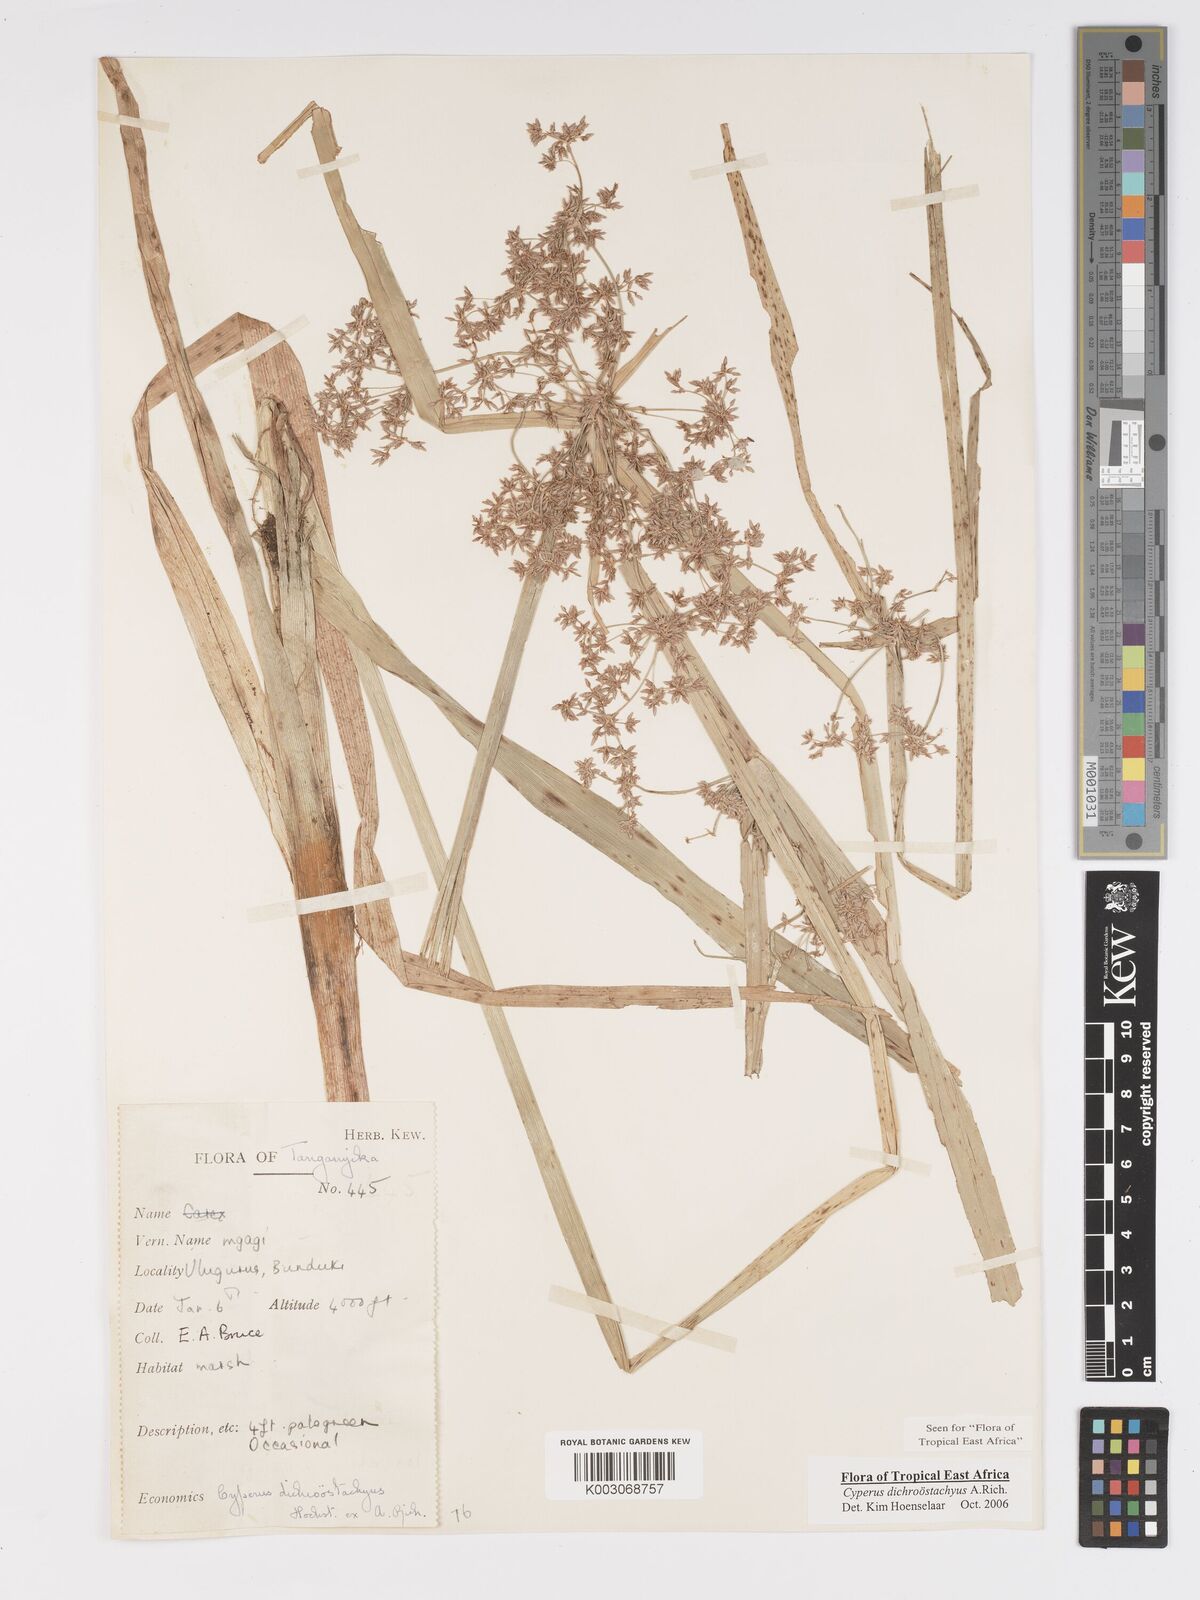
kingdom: Plantae
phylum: Tracheophyta
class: Liliopsida
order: Poales
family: Cyperaceae
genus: Cyperus
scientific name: Cyperus dichrostachyus
